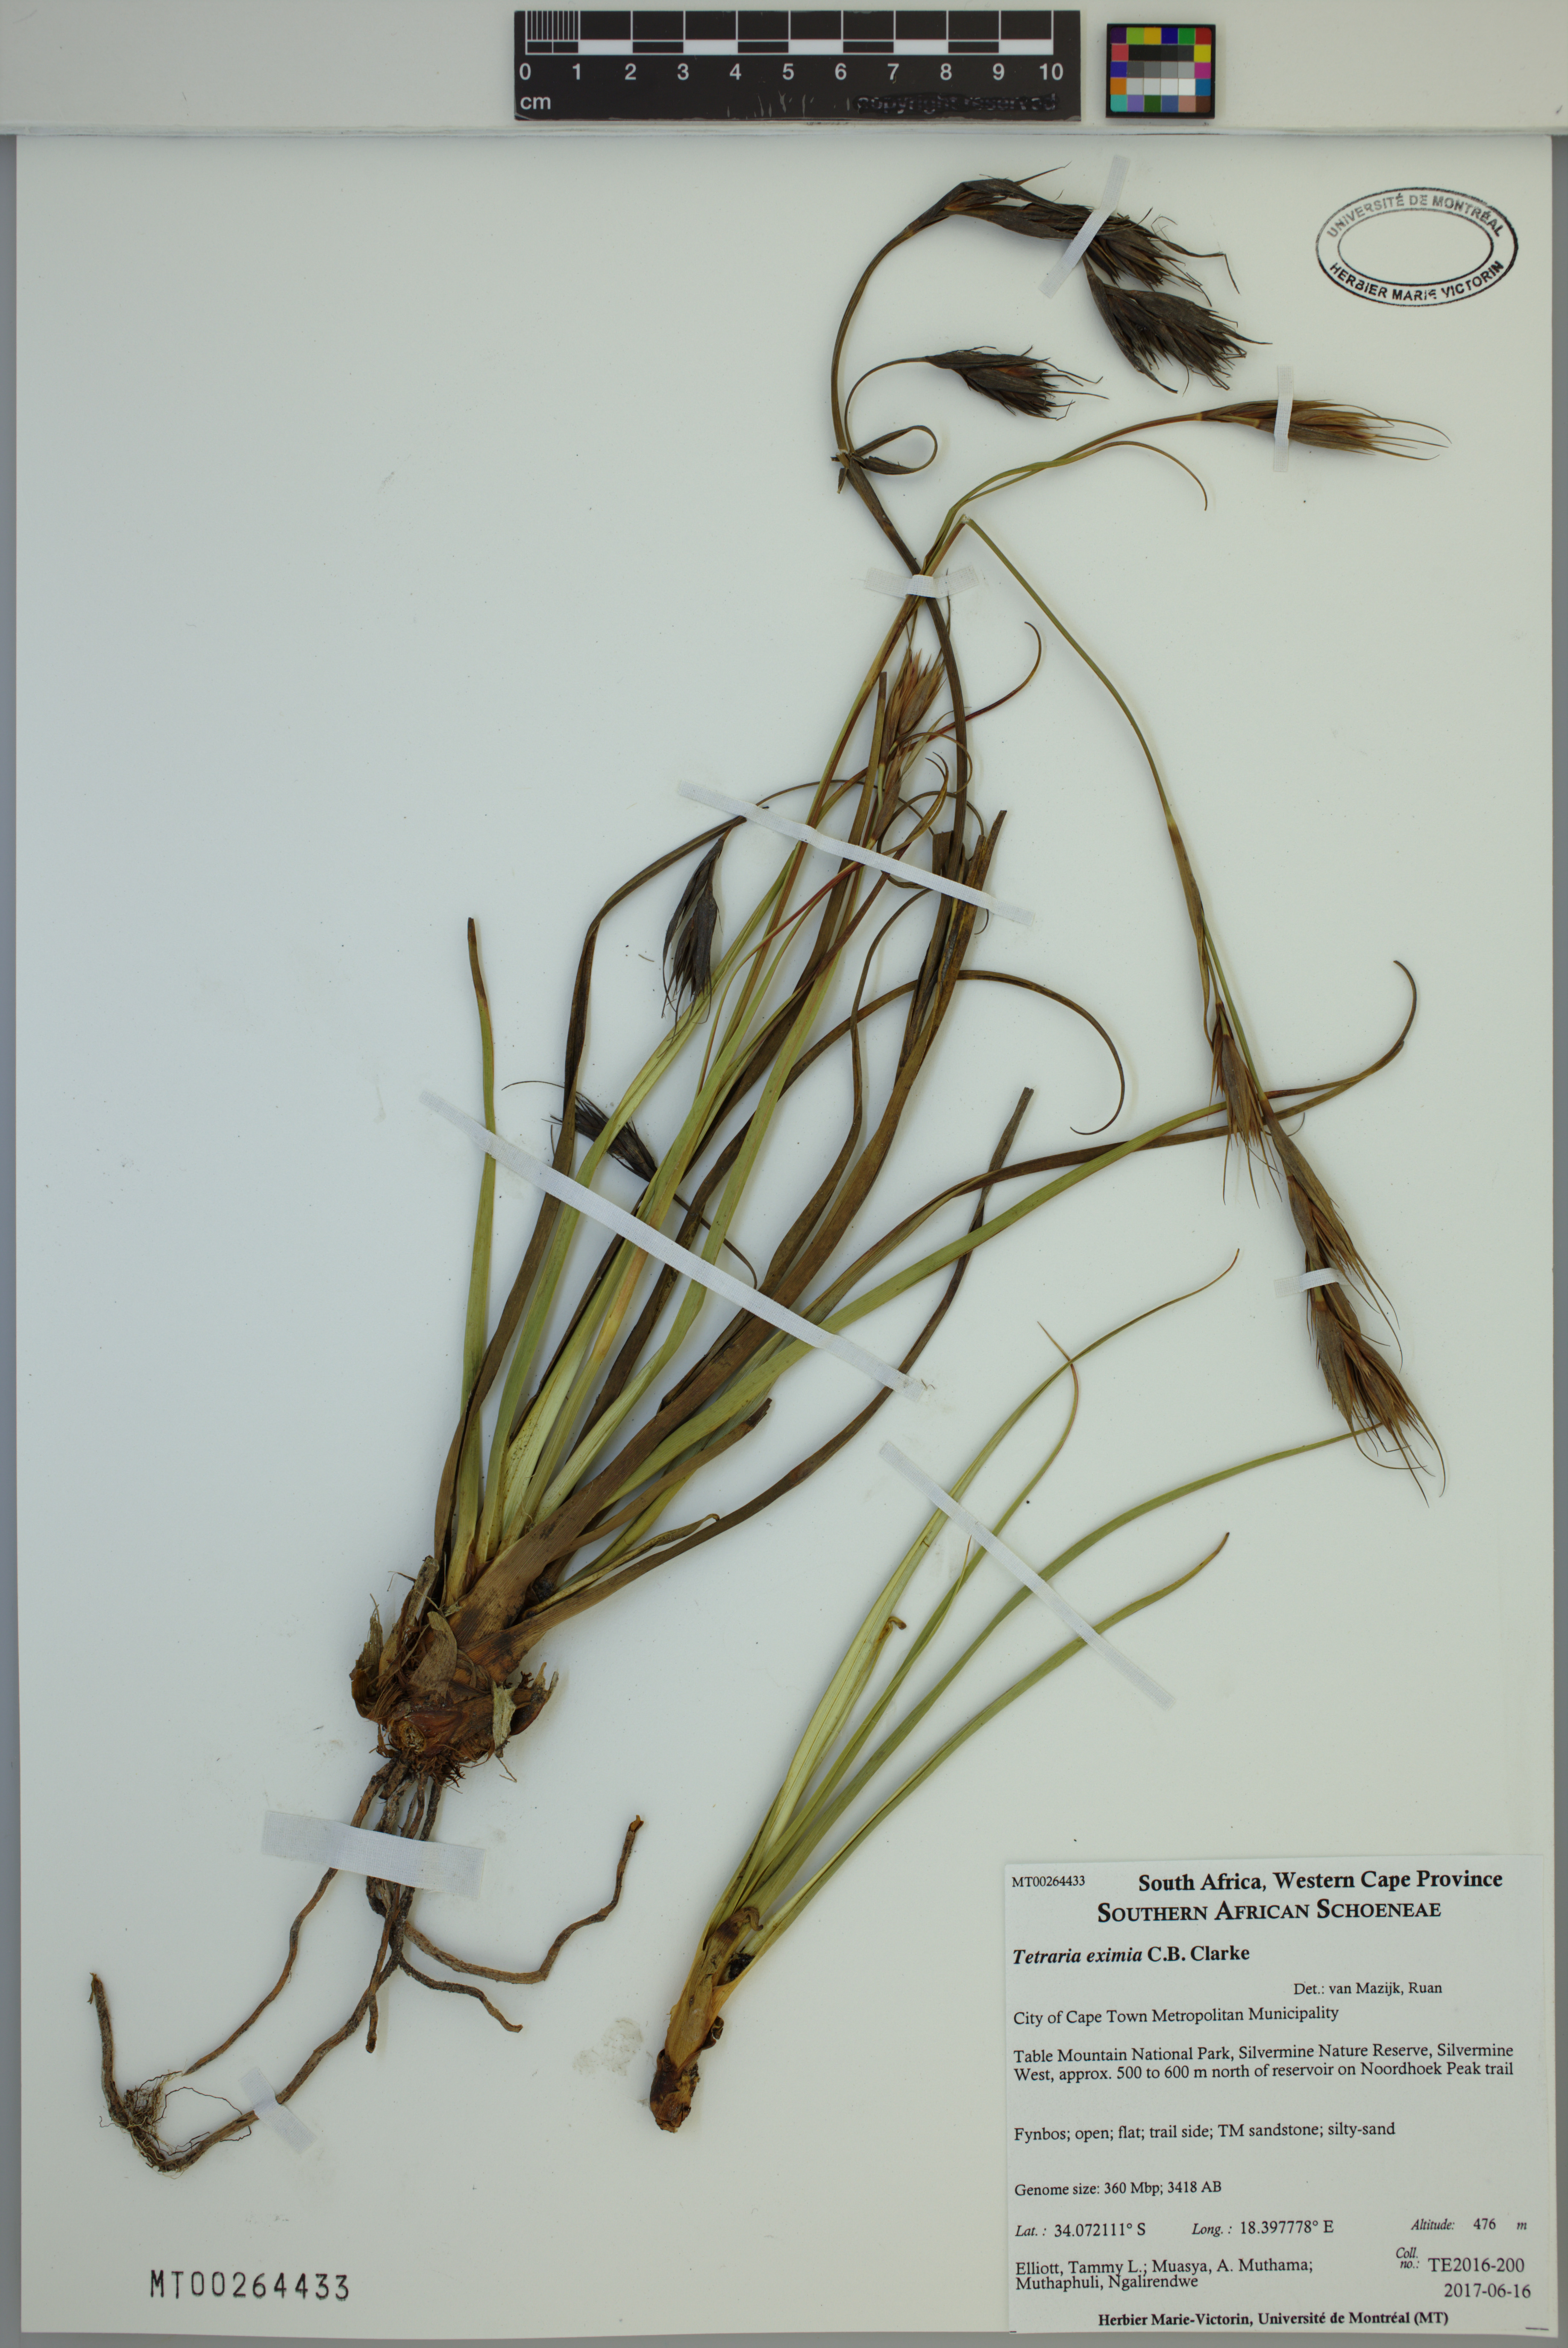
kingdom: Plantae
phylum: Tracheophyta
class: Liliopsida
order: Poales
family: Cyperaceae
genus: Tetraria
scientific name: Tetraria eximia
